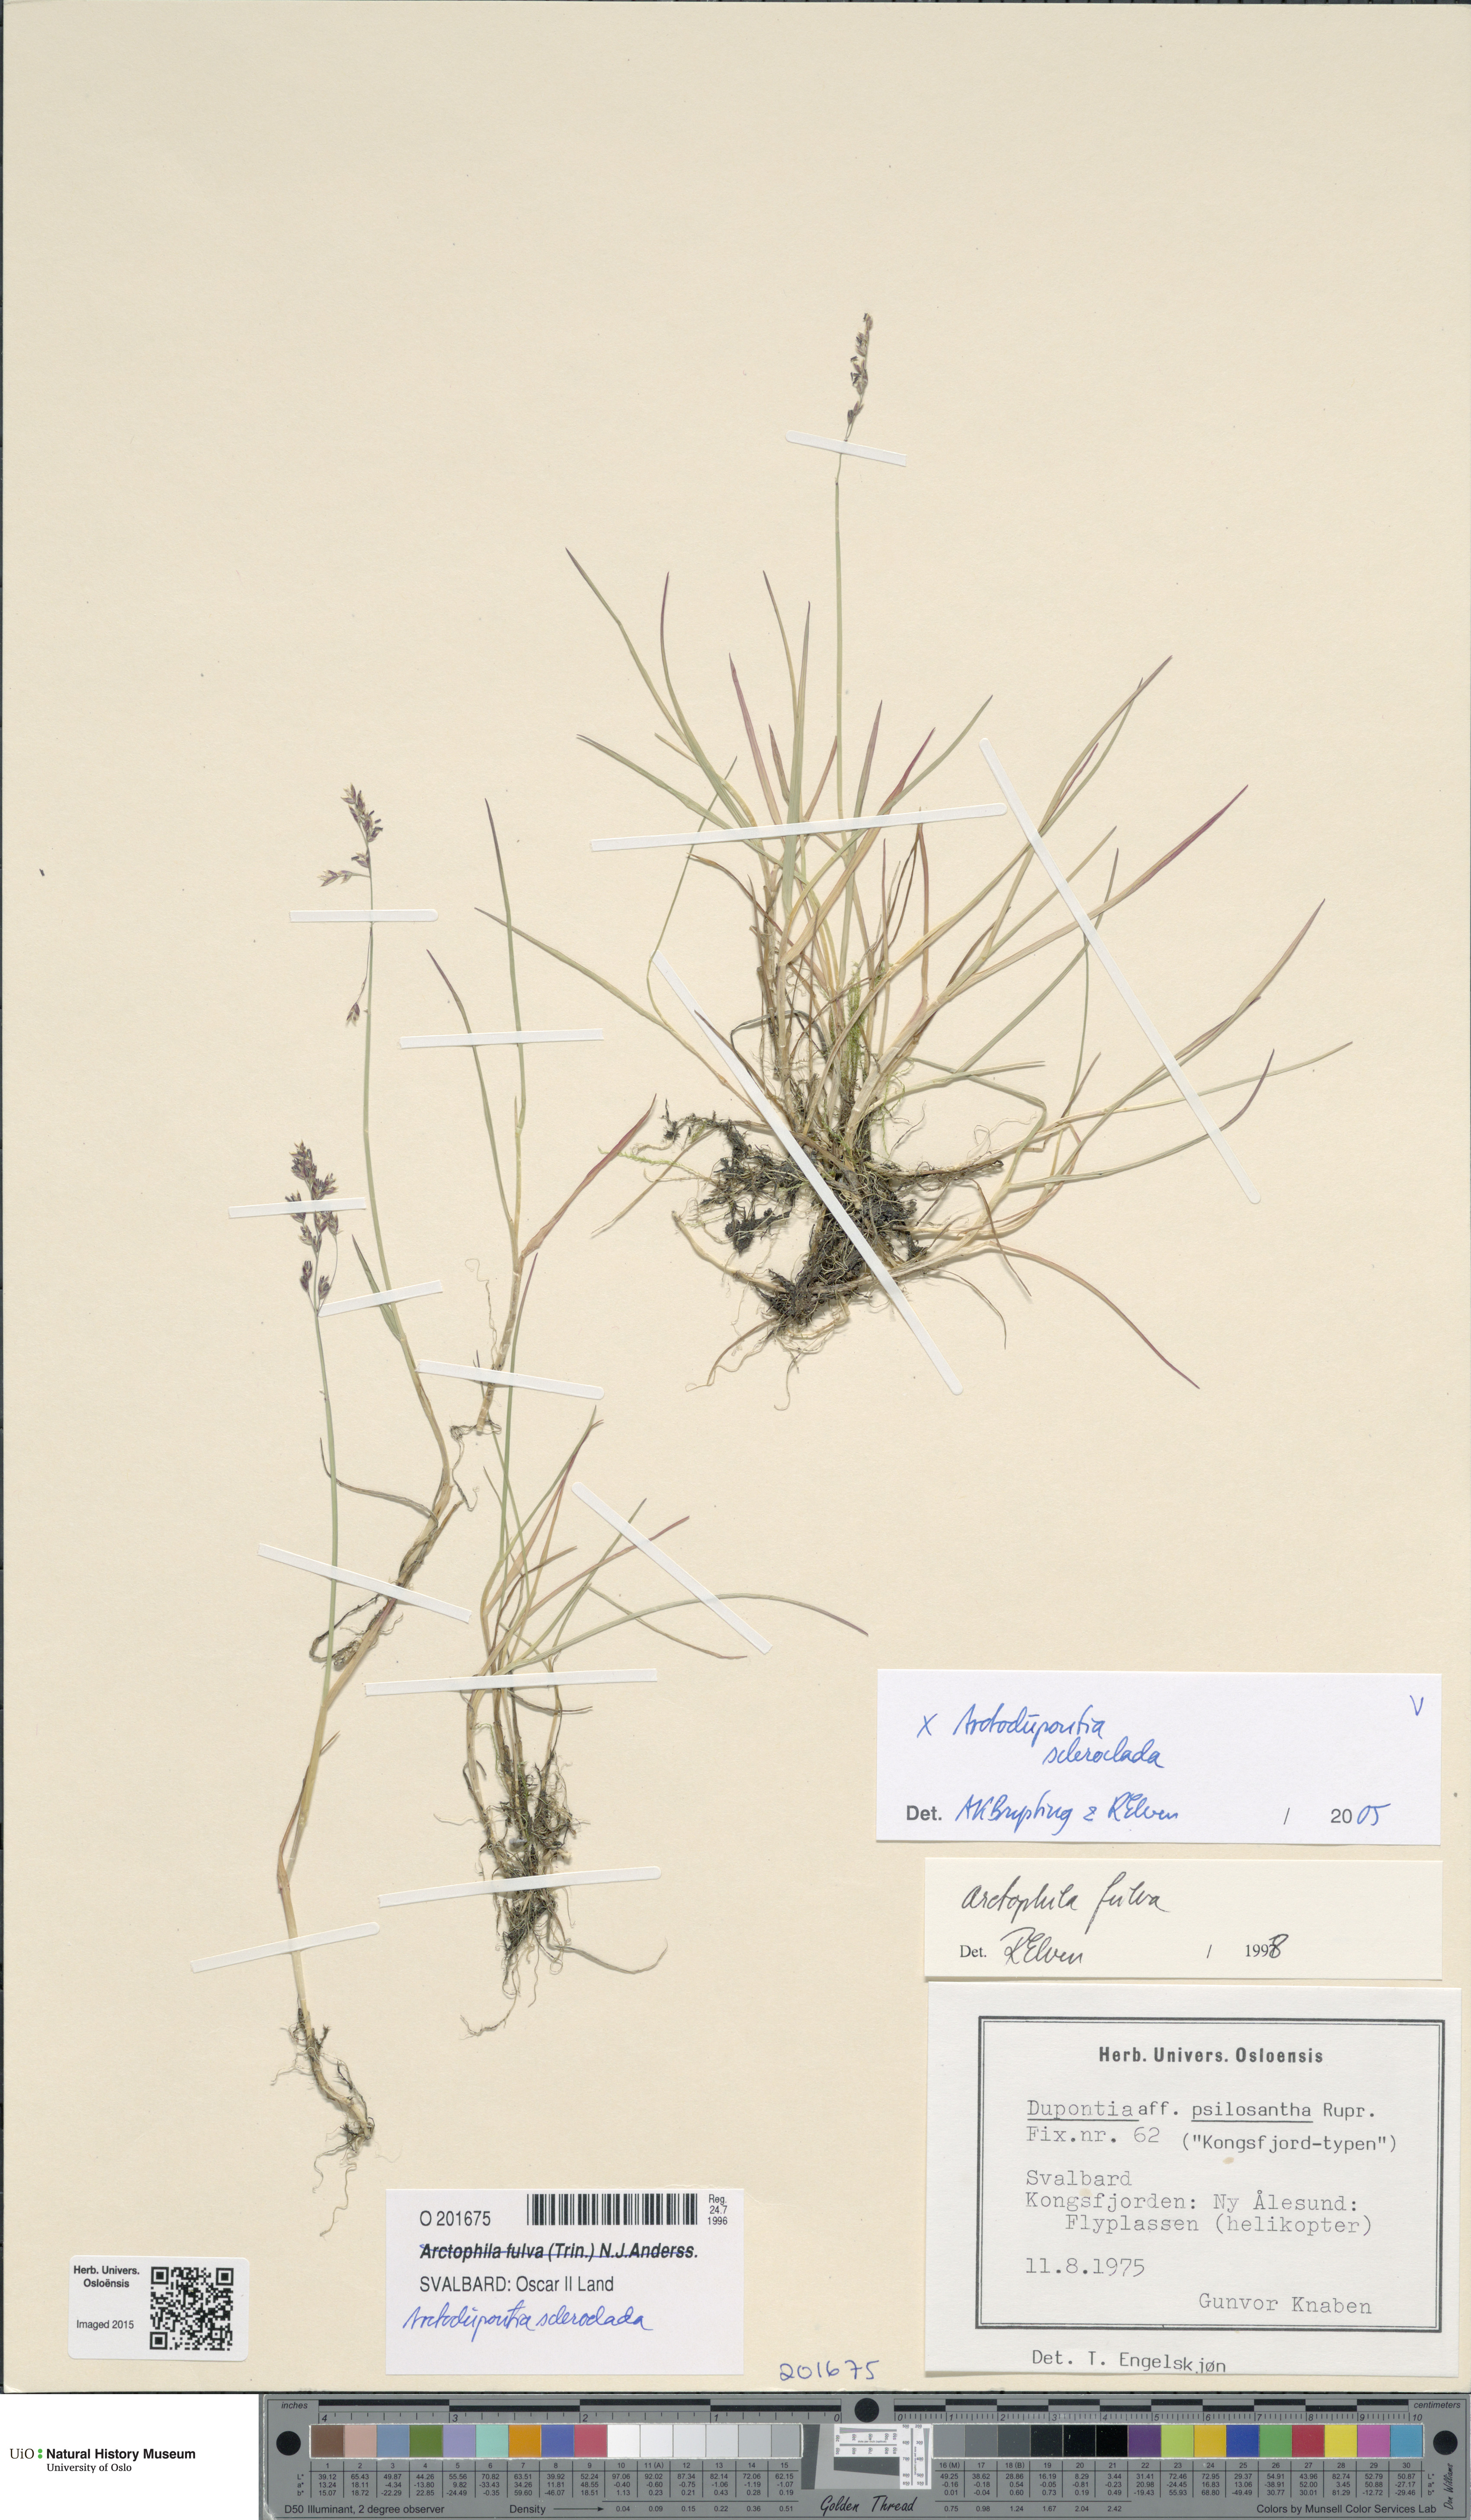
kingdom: Plantae
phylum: Tracheophyta
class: Liliopsida
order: Poales
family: Poaceae
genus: Arctodupontia
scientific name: Arctodupontia scleroclada
